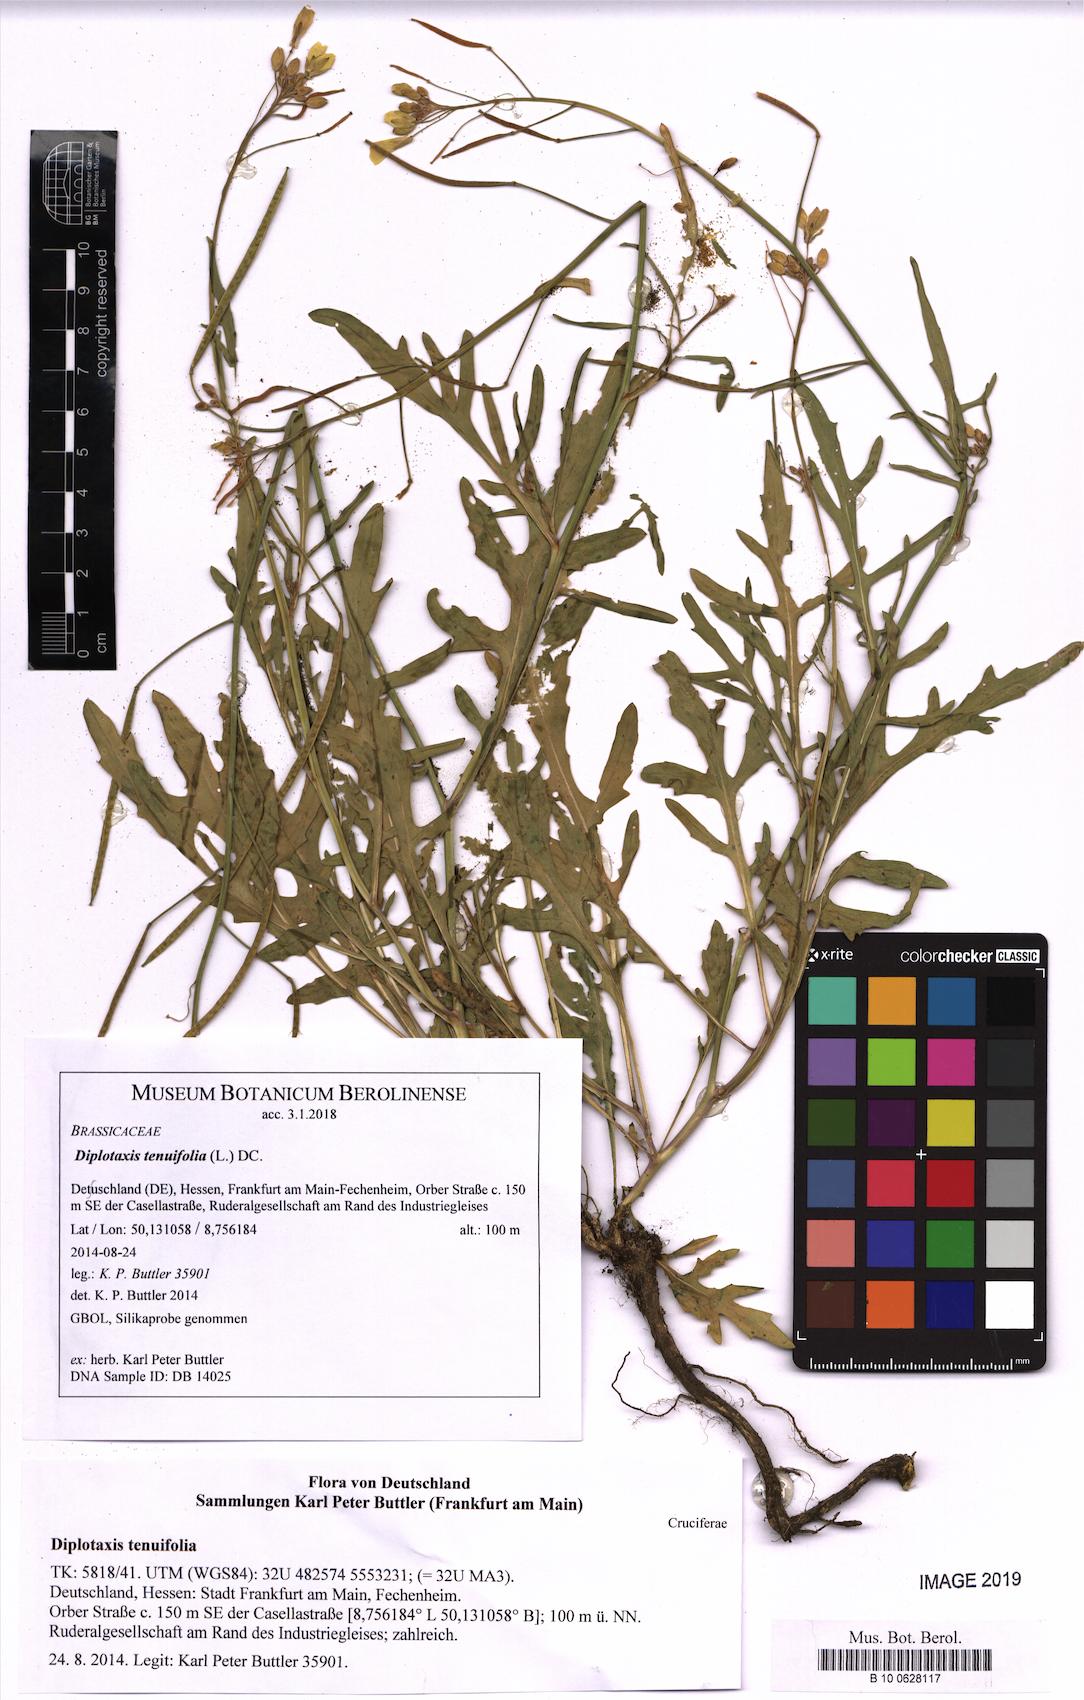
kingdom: Plantae
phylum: Tracheophyta
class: Magnoliopsida
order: Brassicales
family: Brassicaceae
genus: Diplotaxis
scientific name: Diplotaxis tenuifolia
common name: Perennial wall-rocket
